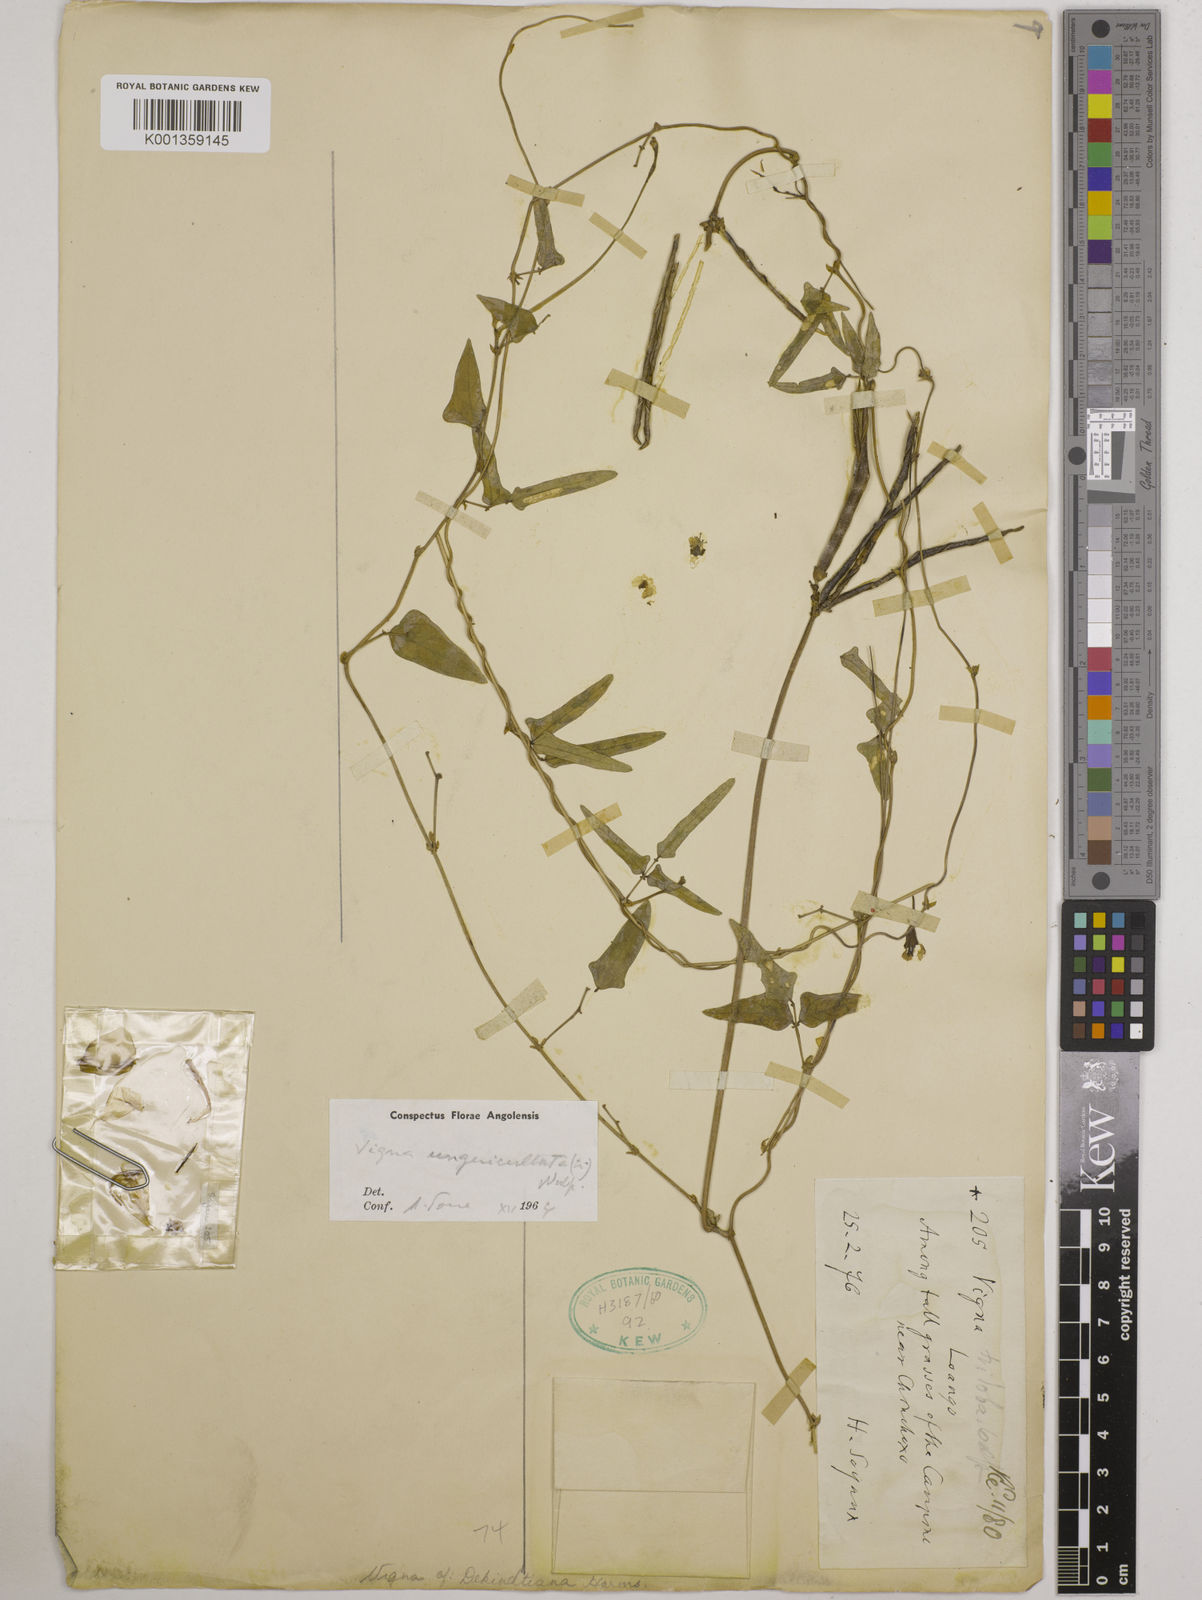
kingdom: Plantae
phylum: Tracheophyta
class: Magnoliopsida
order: Fabales
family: Fabaceae
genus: Vigna
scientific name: Vigna
